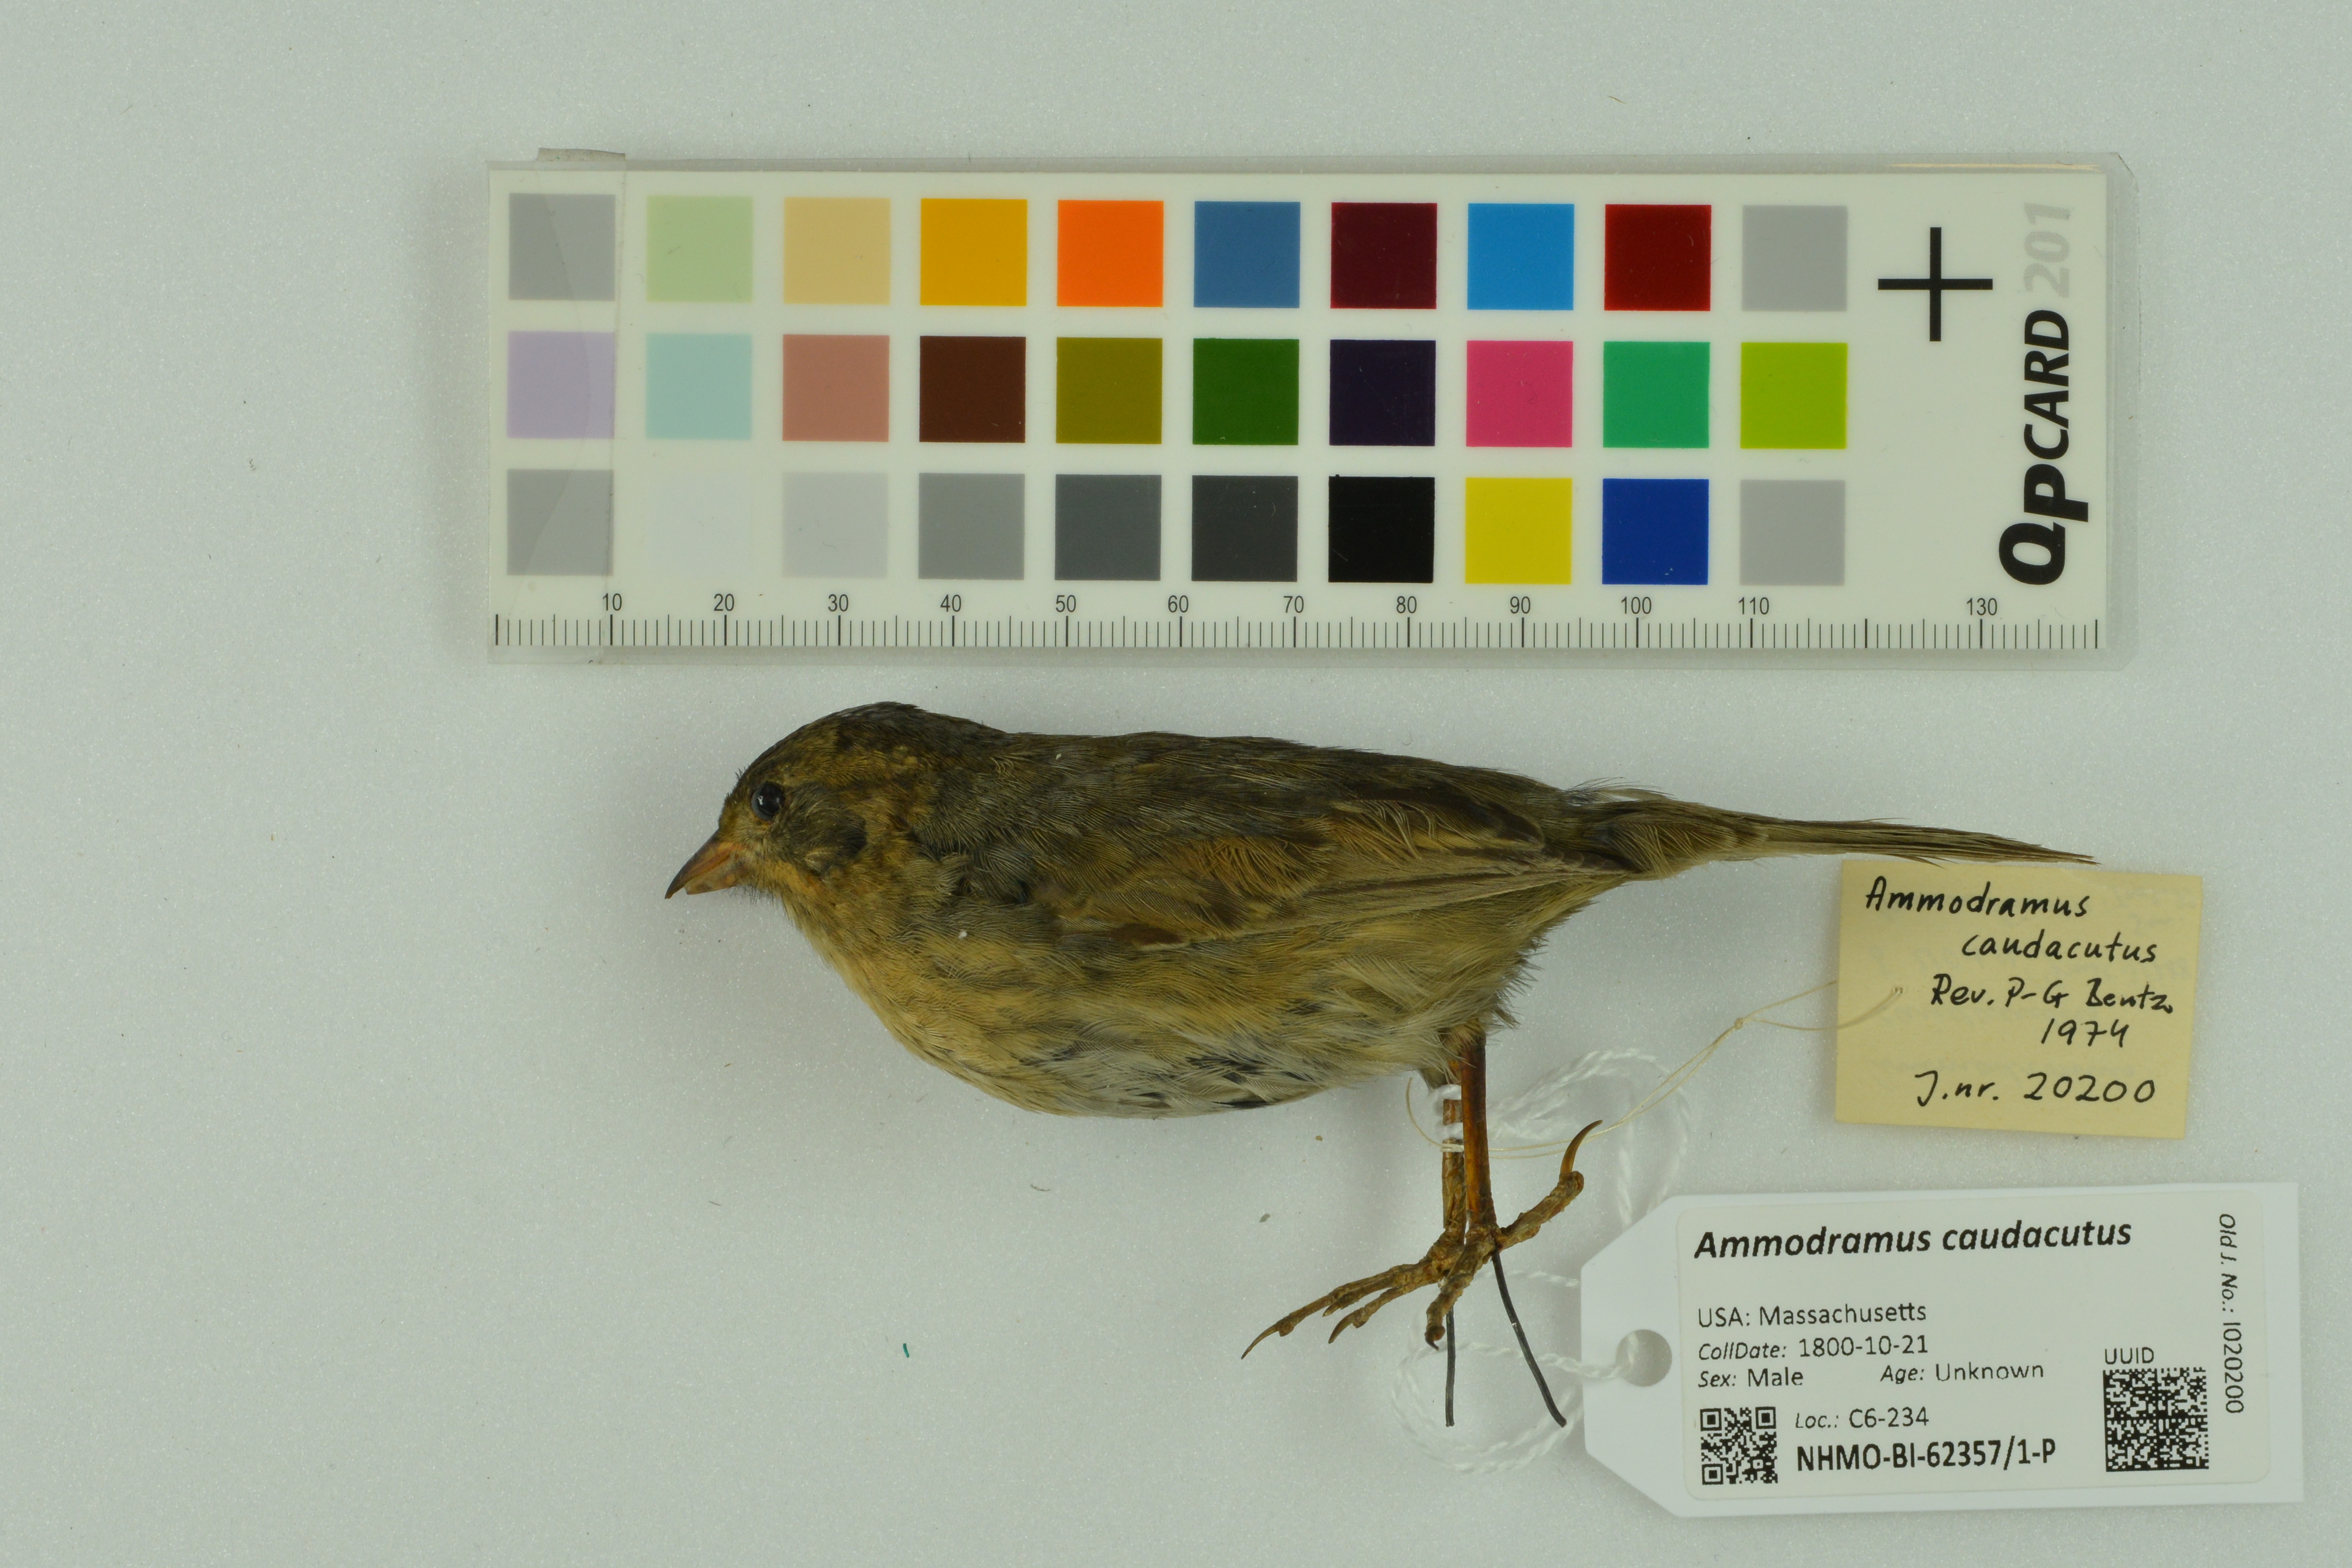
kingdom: Animalia
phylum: Chordata
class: Aves
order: Passeriformes
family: Passerellidae
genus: Ammospiza
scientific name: Ammospiza caudacuta
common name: Saltmarsh sparrow
